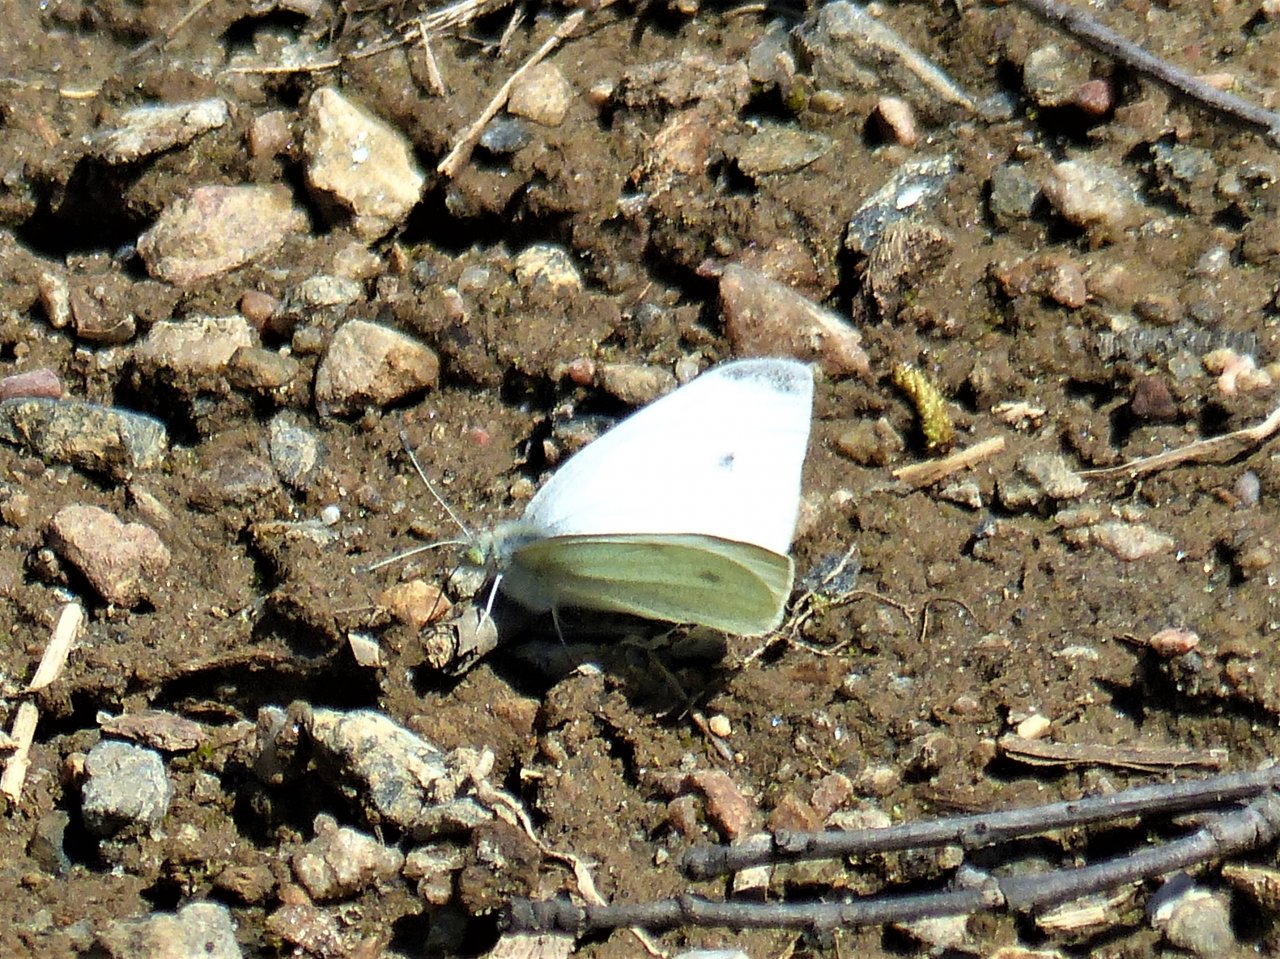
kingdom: Animalia
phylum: Arthropoda
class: Insecta
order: Lepidoptera
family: Pieridae
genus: Pieris
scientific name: Pieris rapae
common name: Cabbage White
